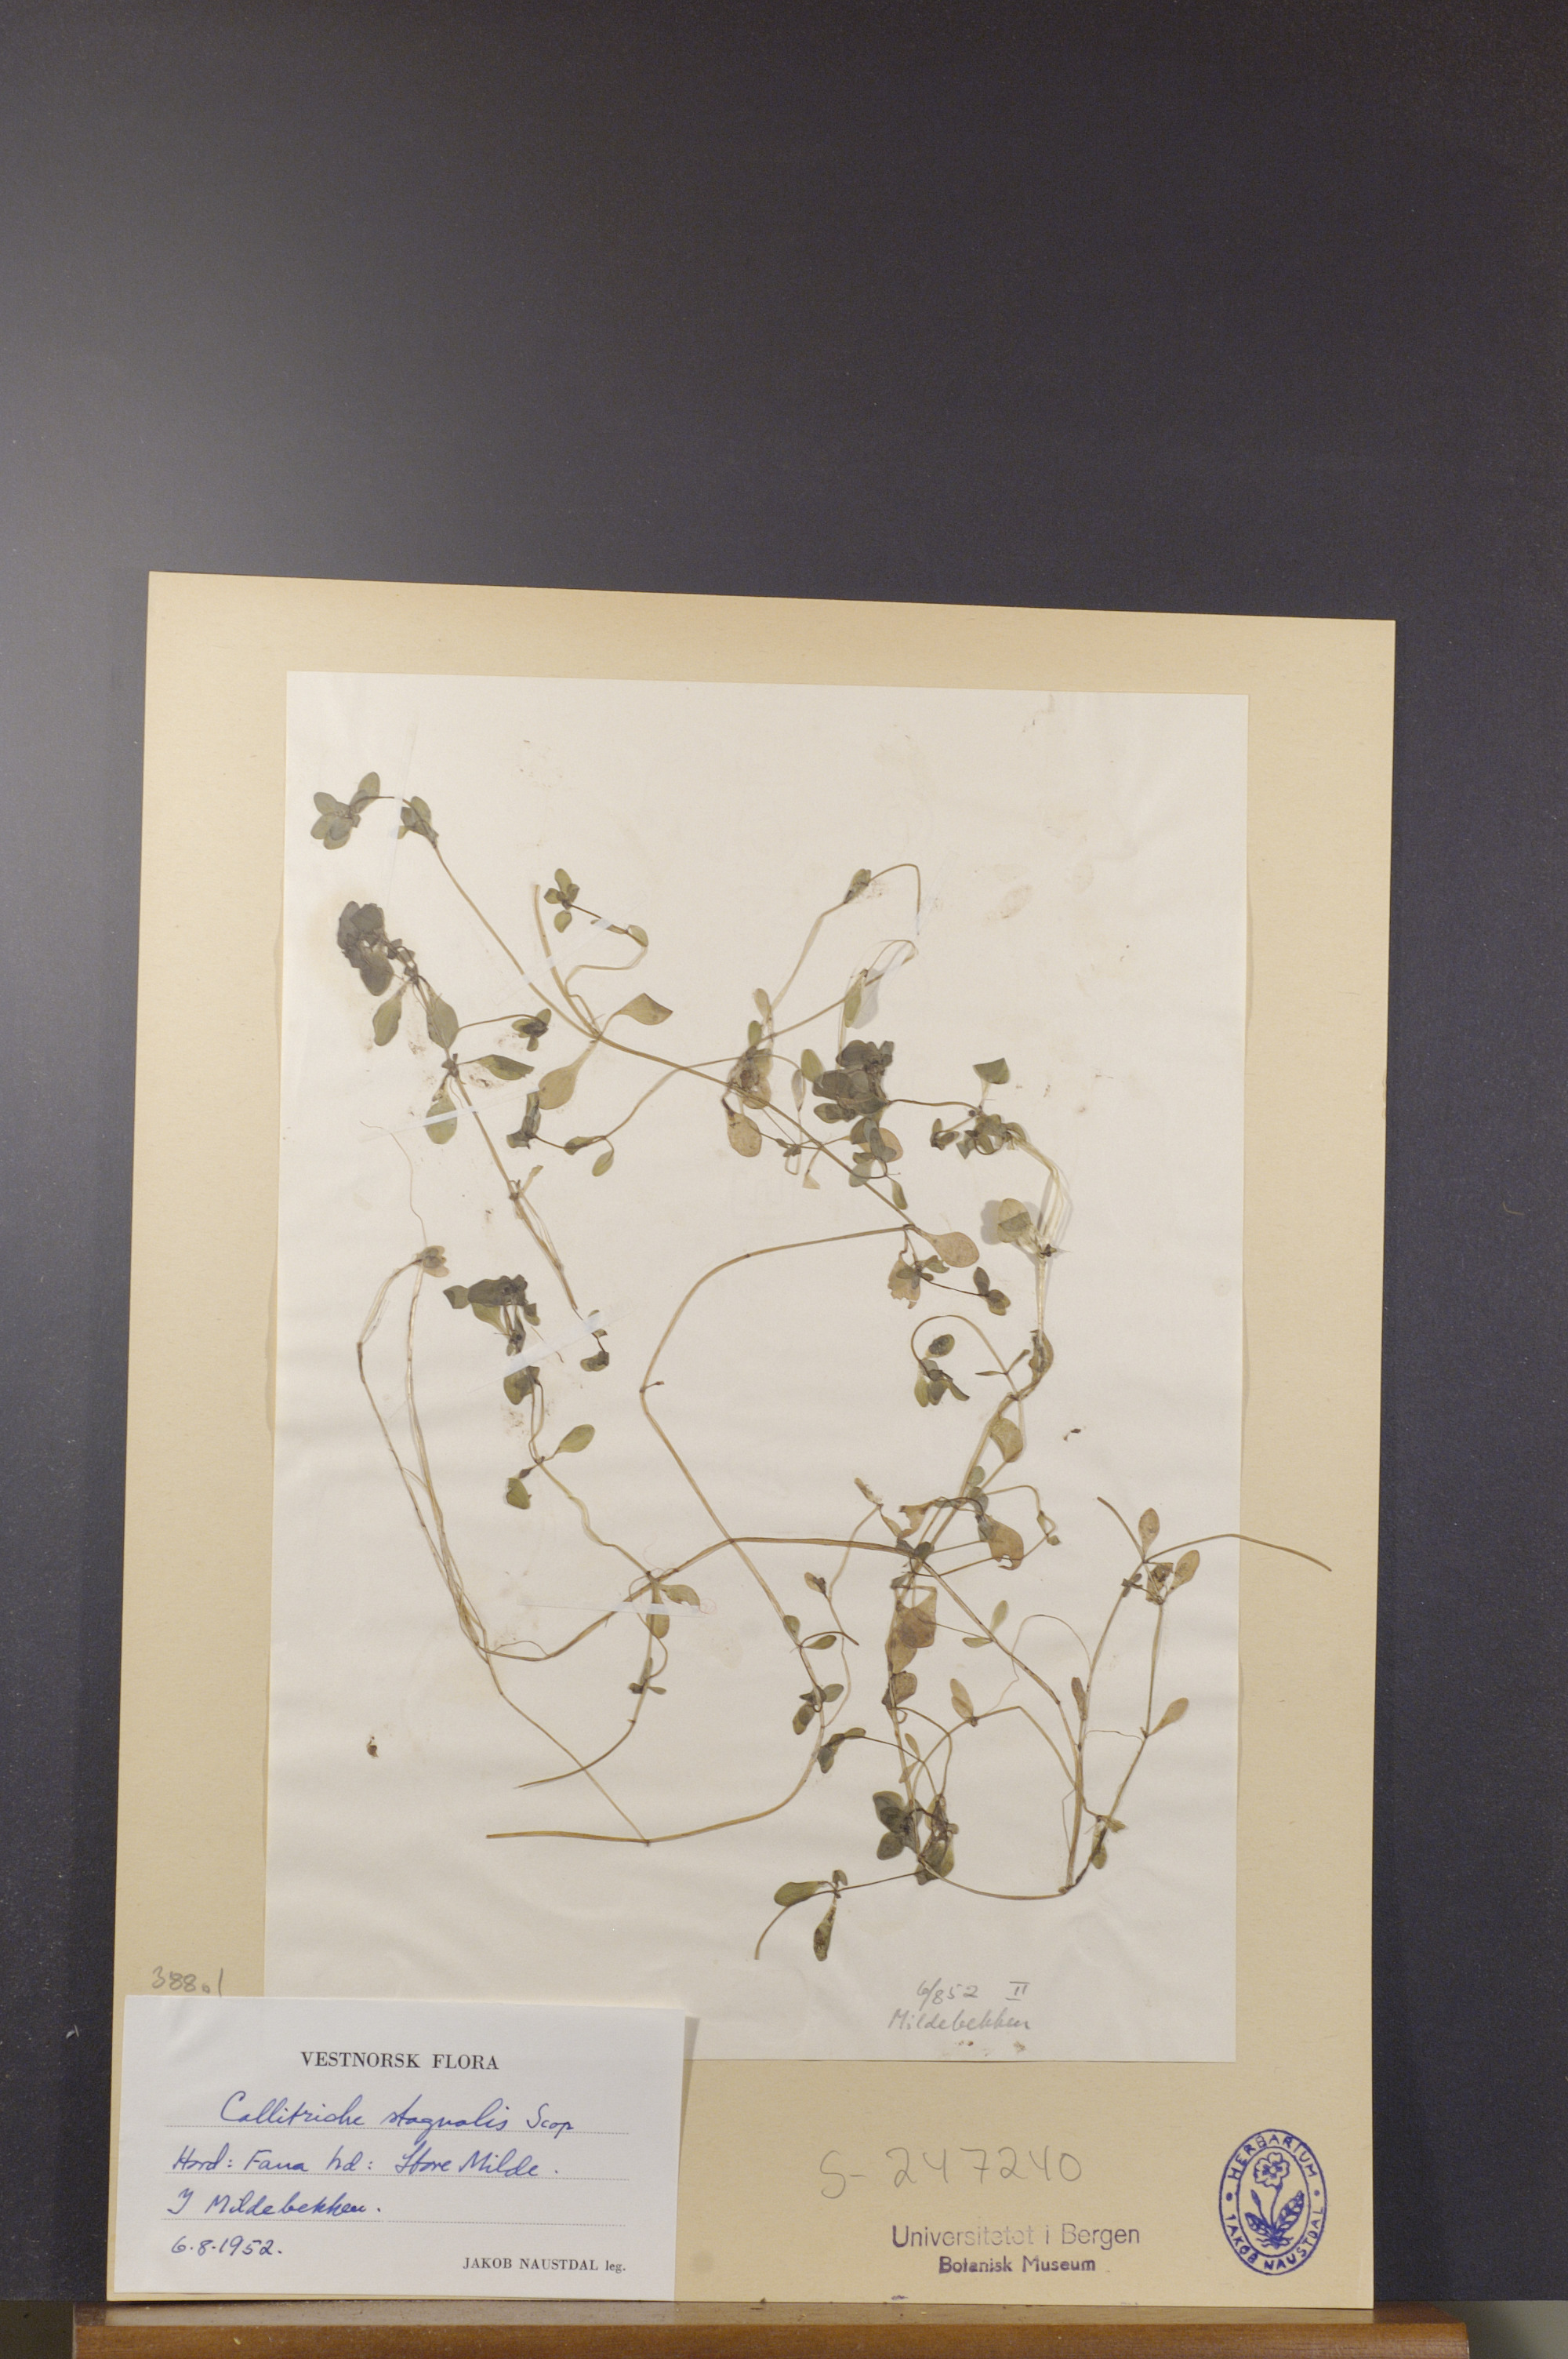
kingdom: Plantae
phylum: Tracheophyta
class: Magnoliopsida
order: Lamiales
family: Plantaginaceae
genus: Callitriche
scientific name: Callitriche stagnalis
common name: Common water-starwort
